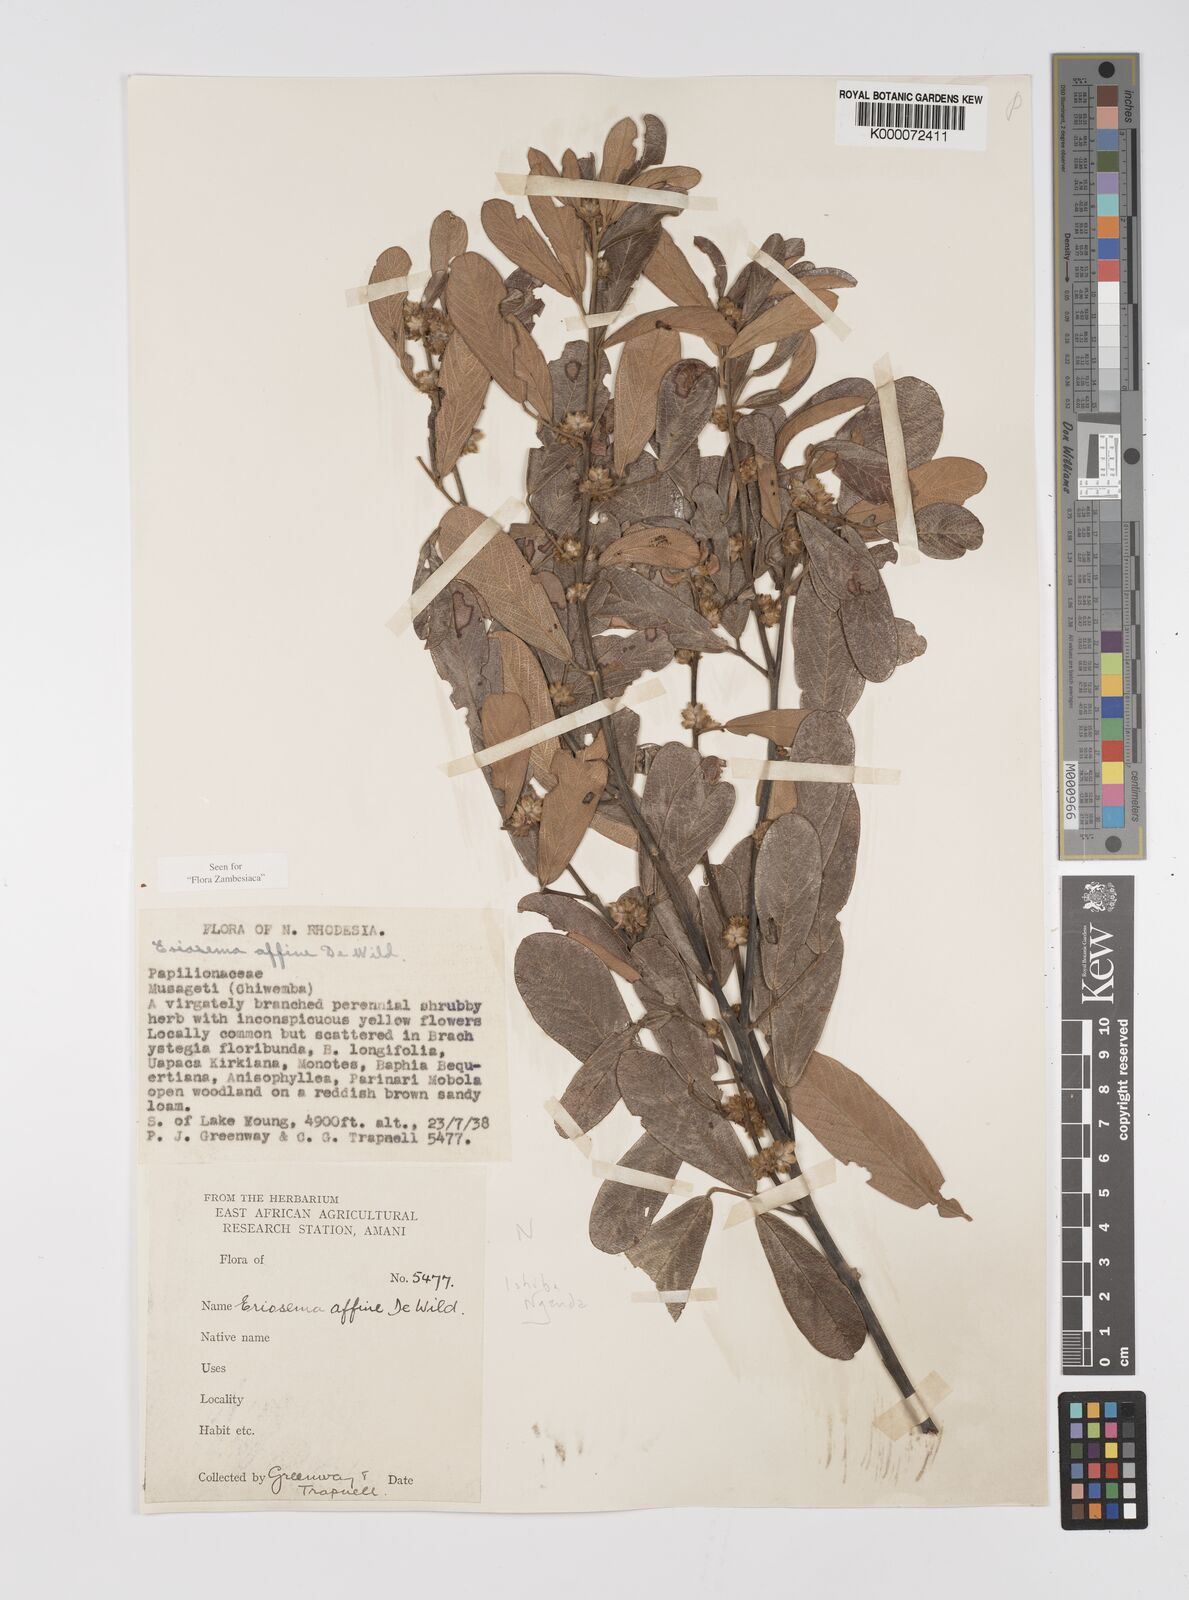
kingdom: Plantae
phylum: Tracheophyta
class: Magnoliopsida
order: Fabales
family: Fabaceae
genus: Eriosema
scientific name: Eriosema affine
